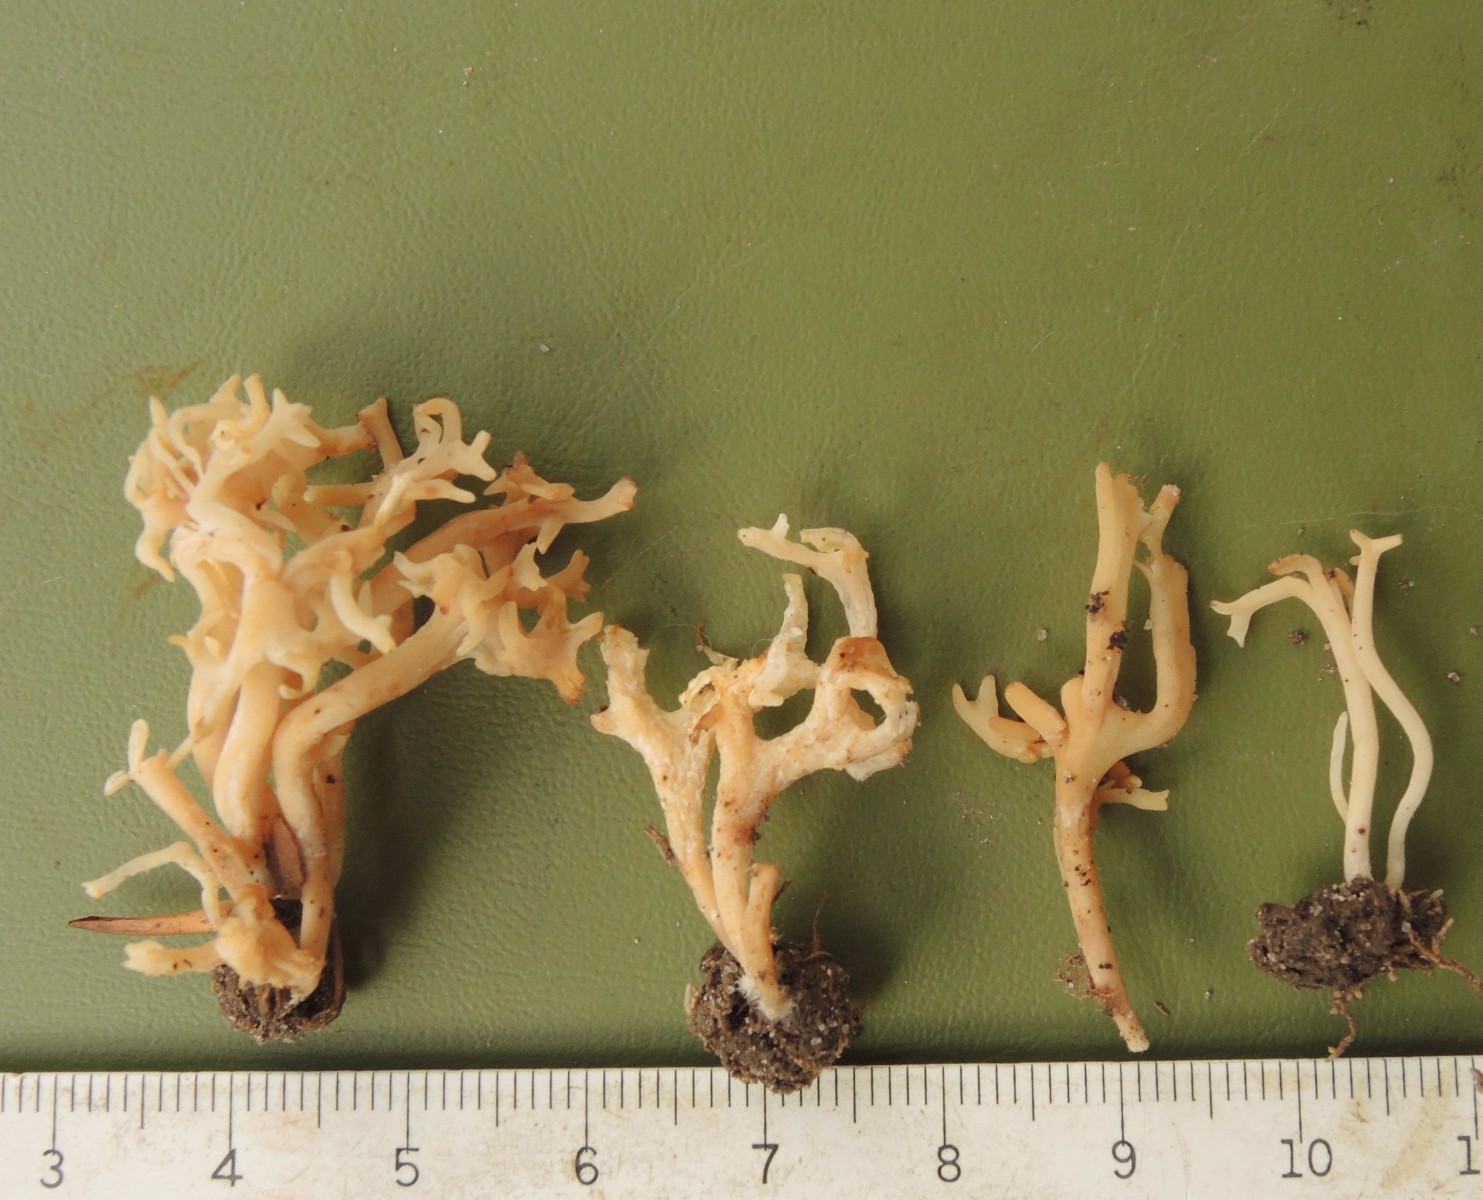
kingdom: Fungi
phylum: Basidiomycota
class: Agaricomycetes
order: Agaricales
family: Clavariaceae
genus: Ramariopsis
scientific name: Ramariopsis
